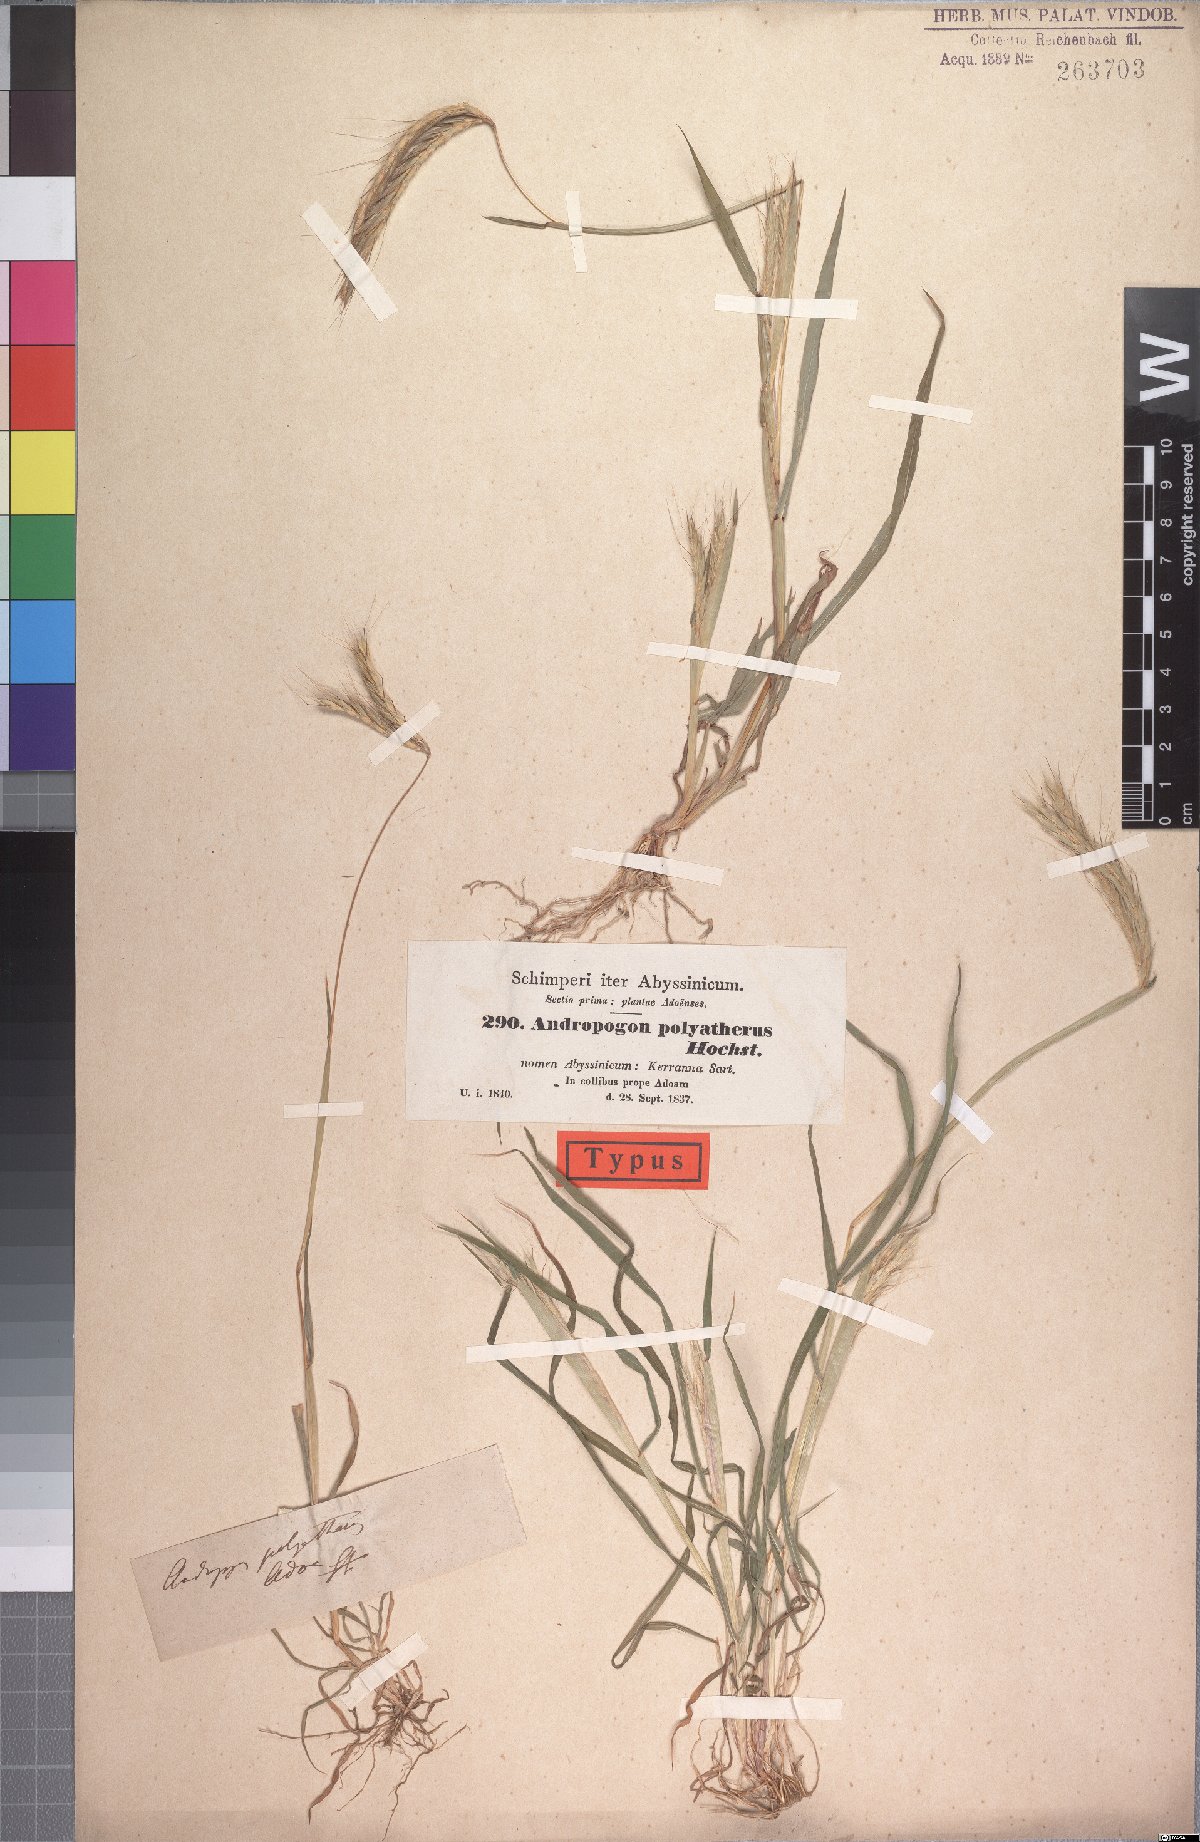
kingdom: Plantae
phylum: Tracheophyta
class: Liliopsida
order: Poales
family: Poaceae
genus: Andropogon
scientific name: Andropogon abyssinicus
